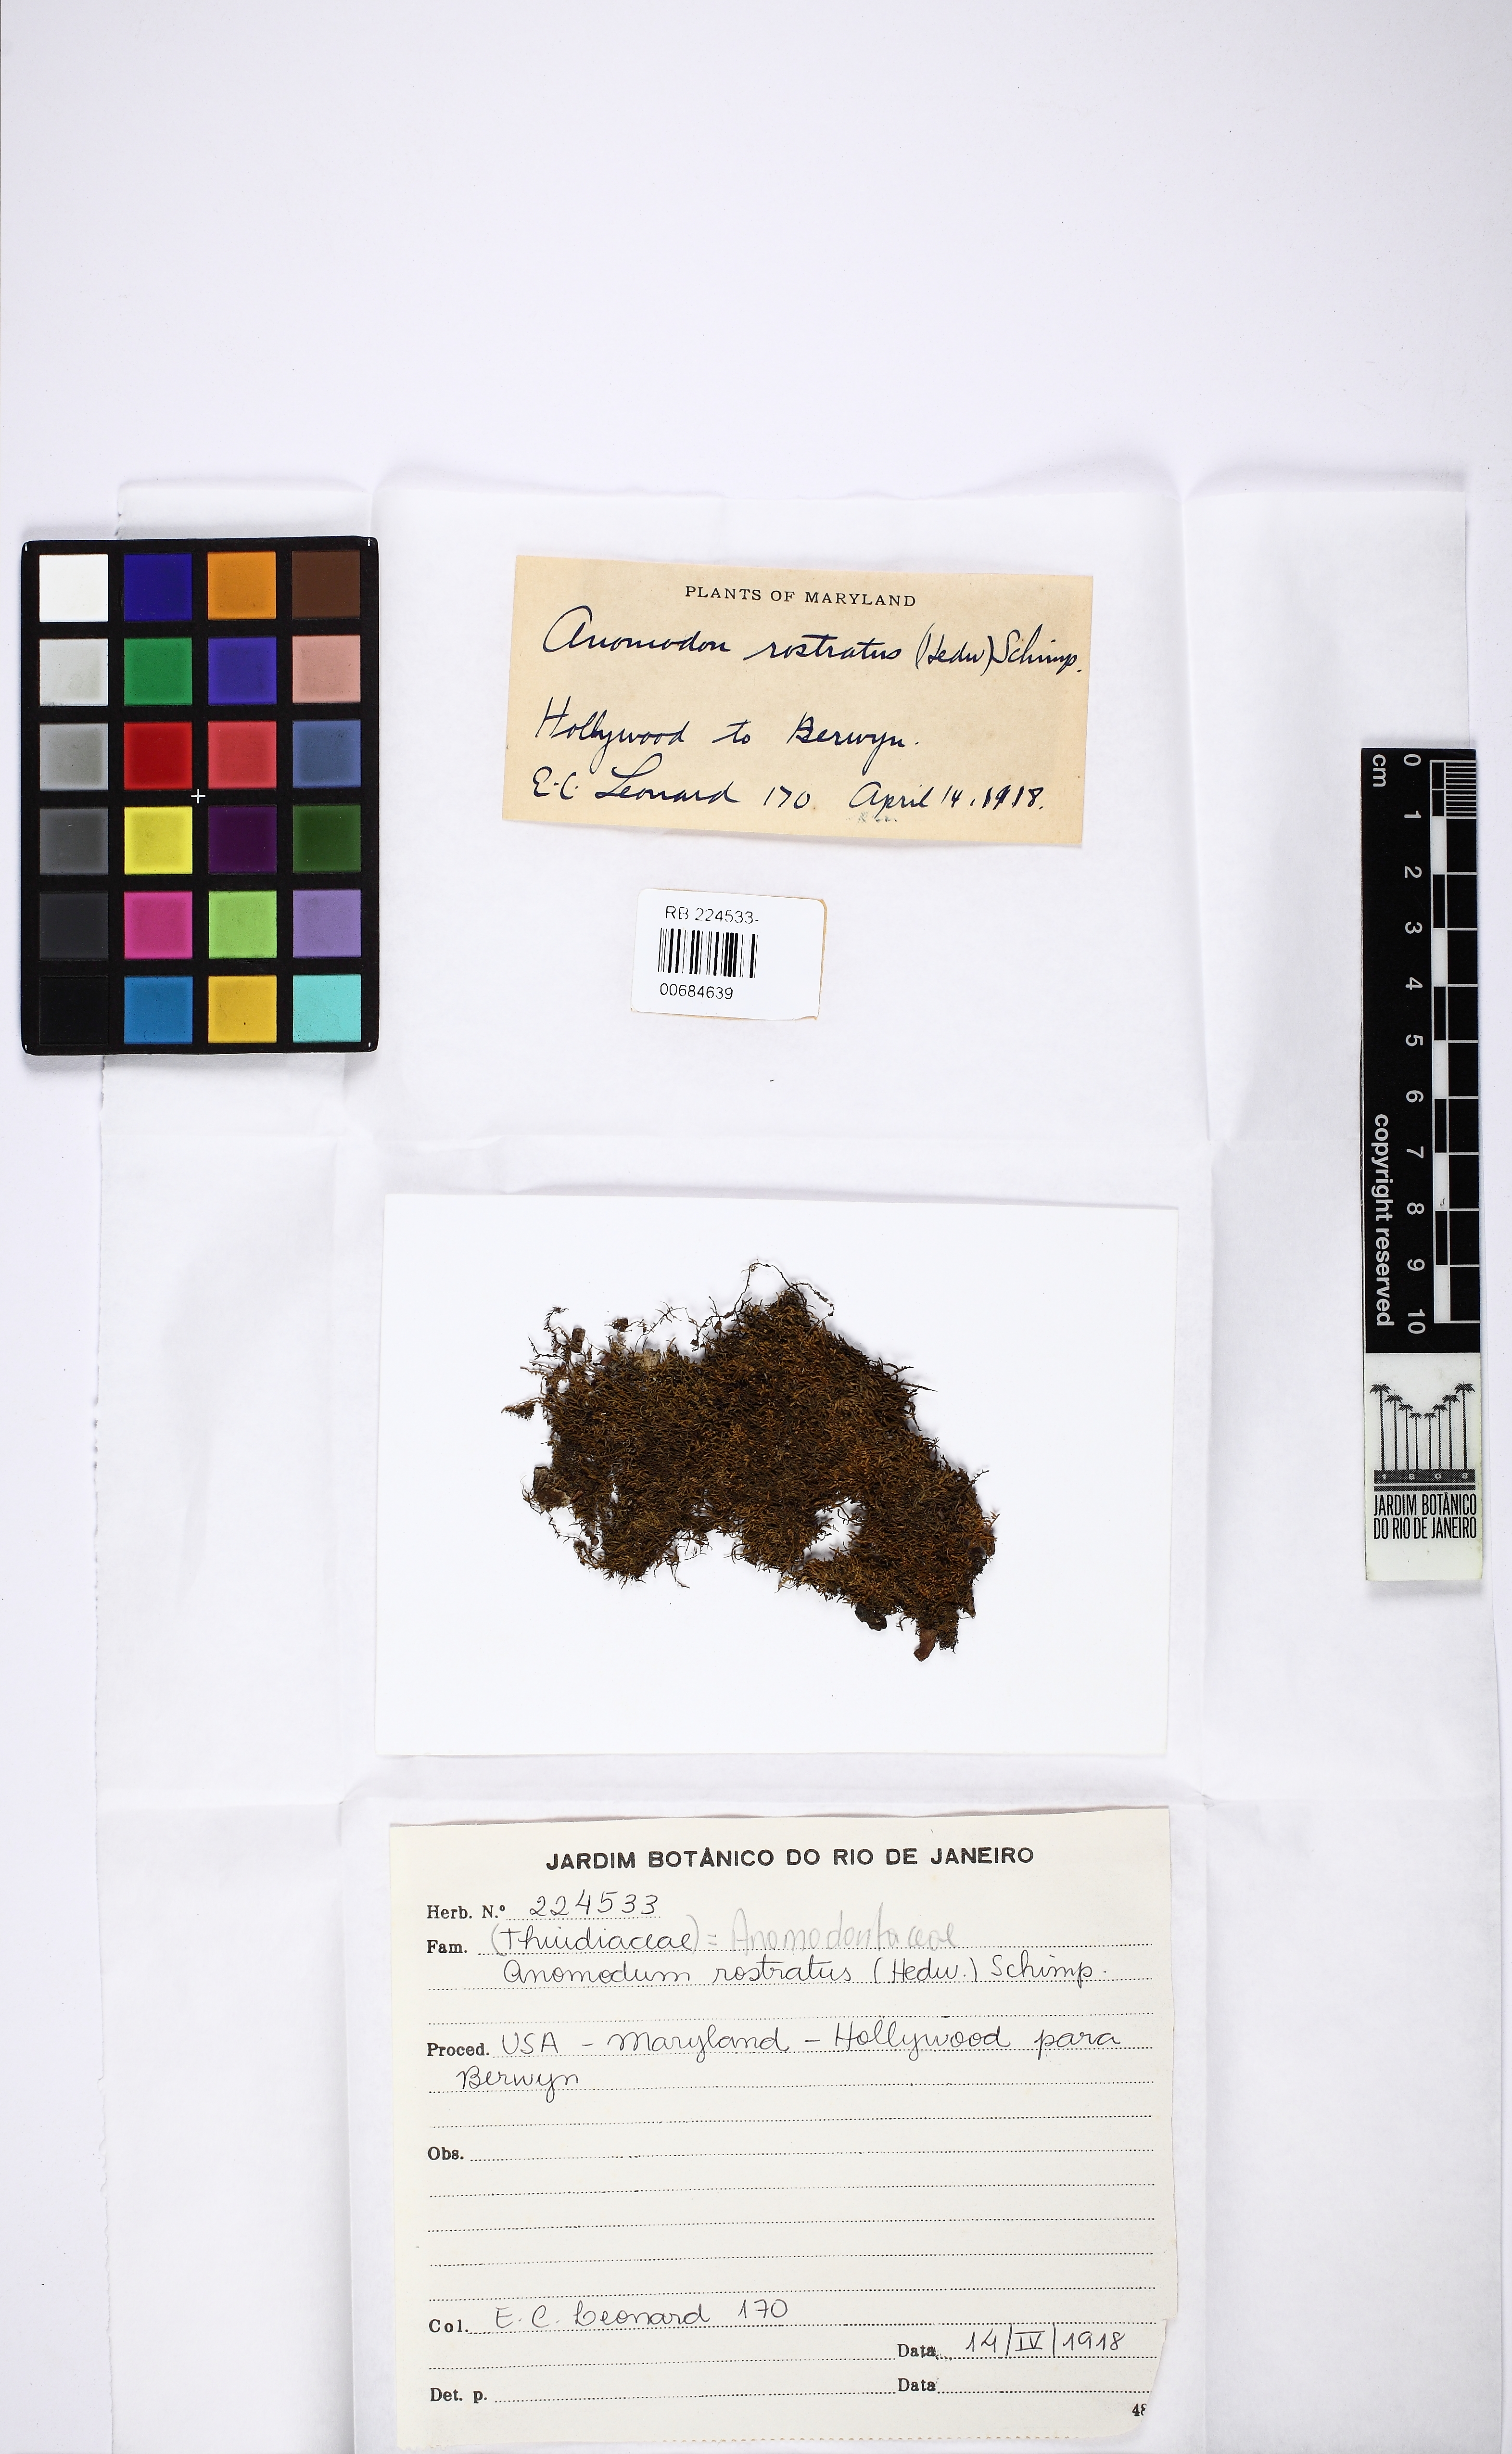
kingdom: Plantae
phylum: Bryophyta
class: Bryopsida
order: Hypnales
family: Brachytheciaceae
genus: Claopodium
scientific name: Claopodium rostratum
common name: Yellow yarn moss
